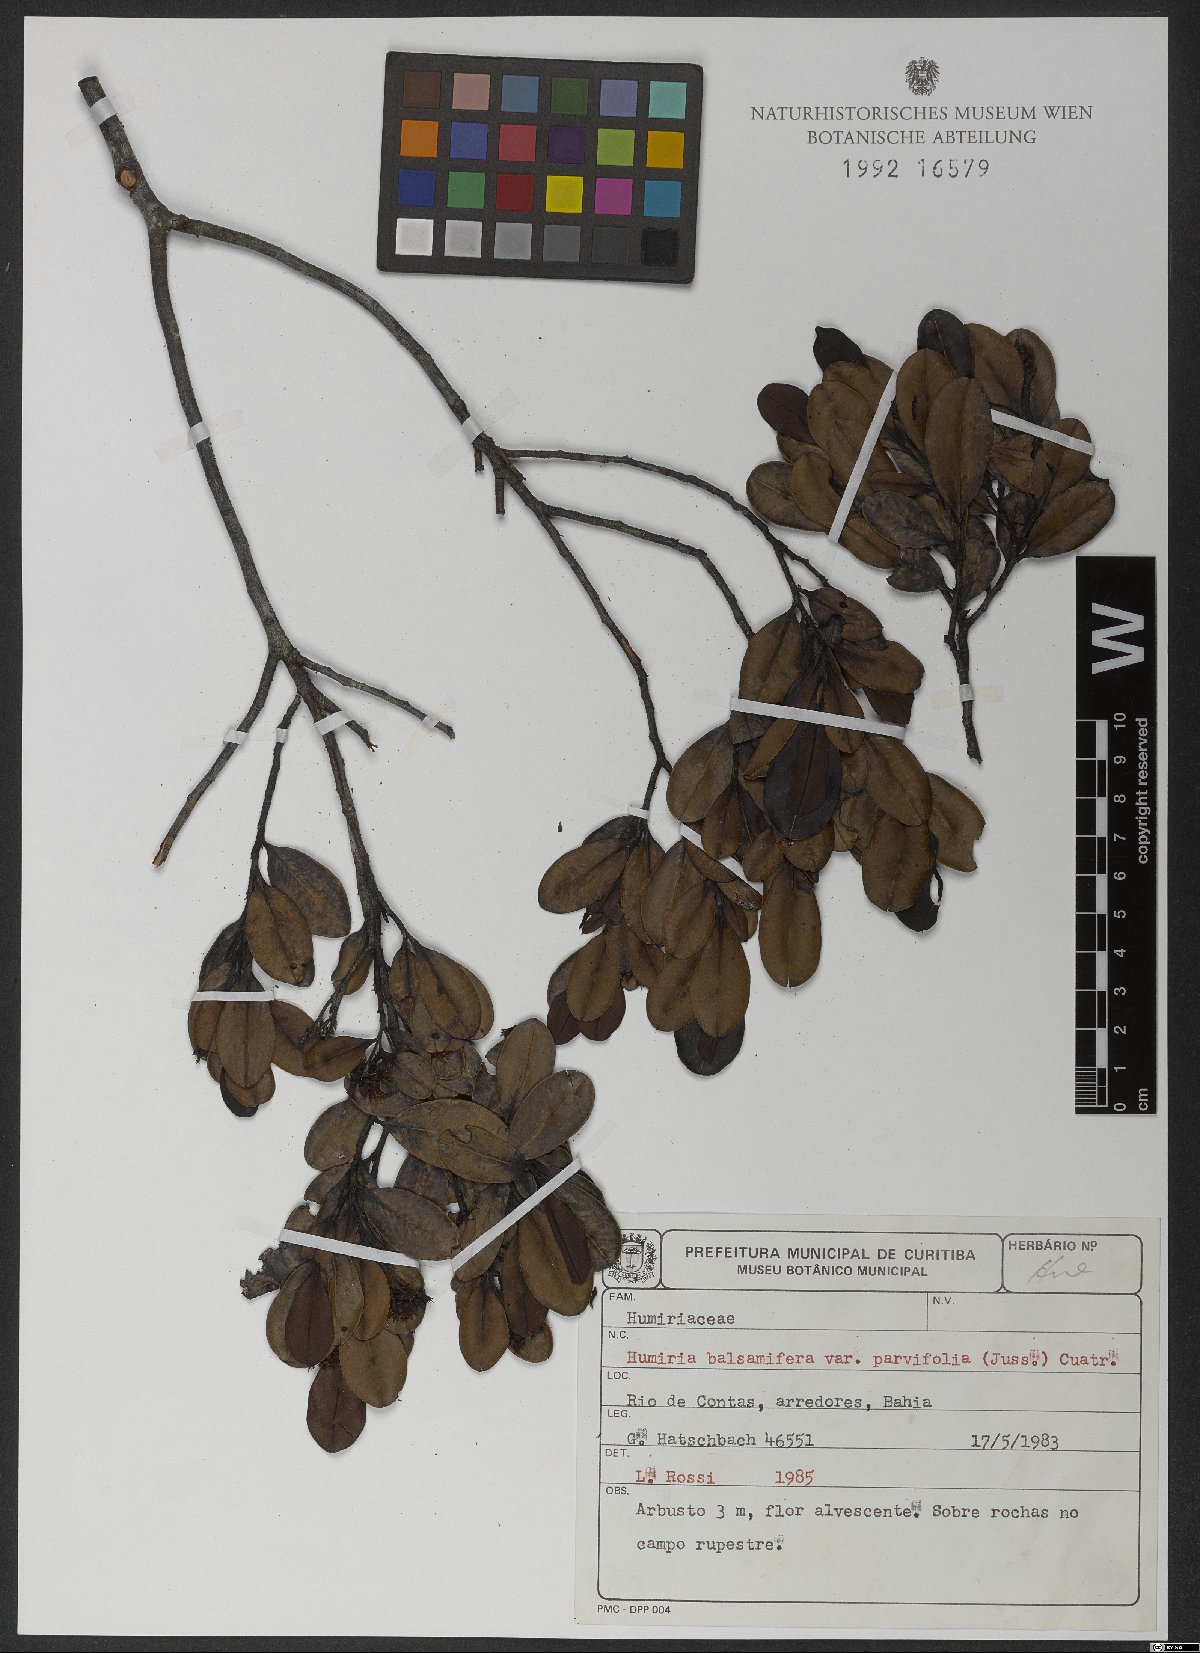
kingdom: Plantae
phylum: Tracheophyta
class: Magnoliopsida
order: Malpighiales
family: Humiriaceae
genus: Humiria
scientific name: Humiria balsamifera
